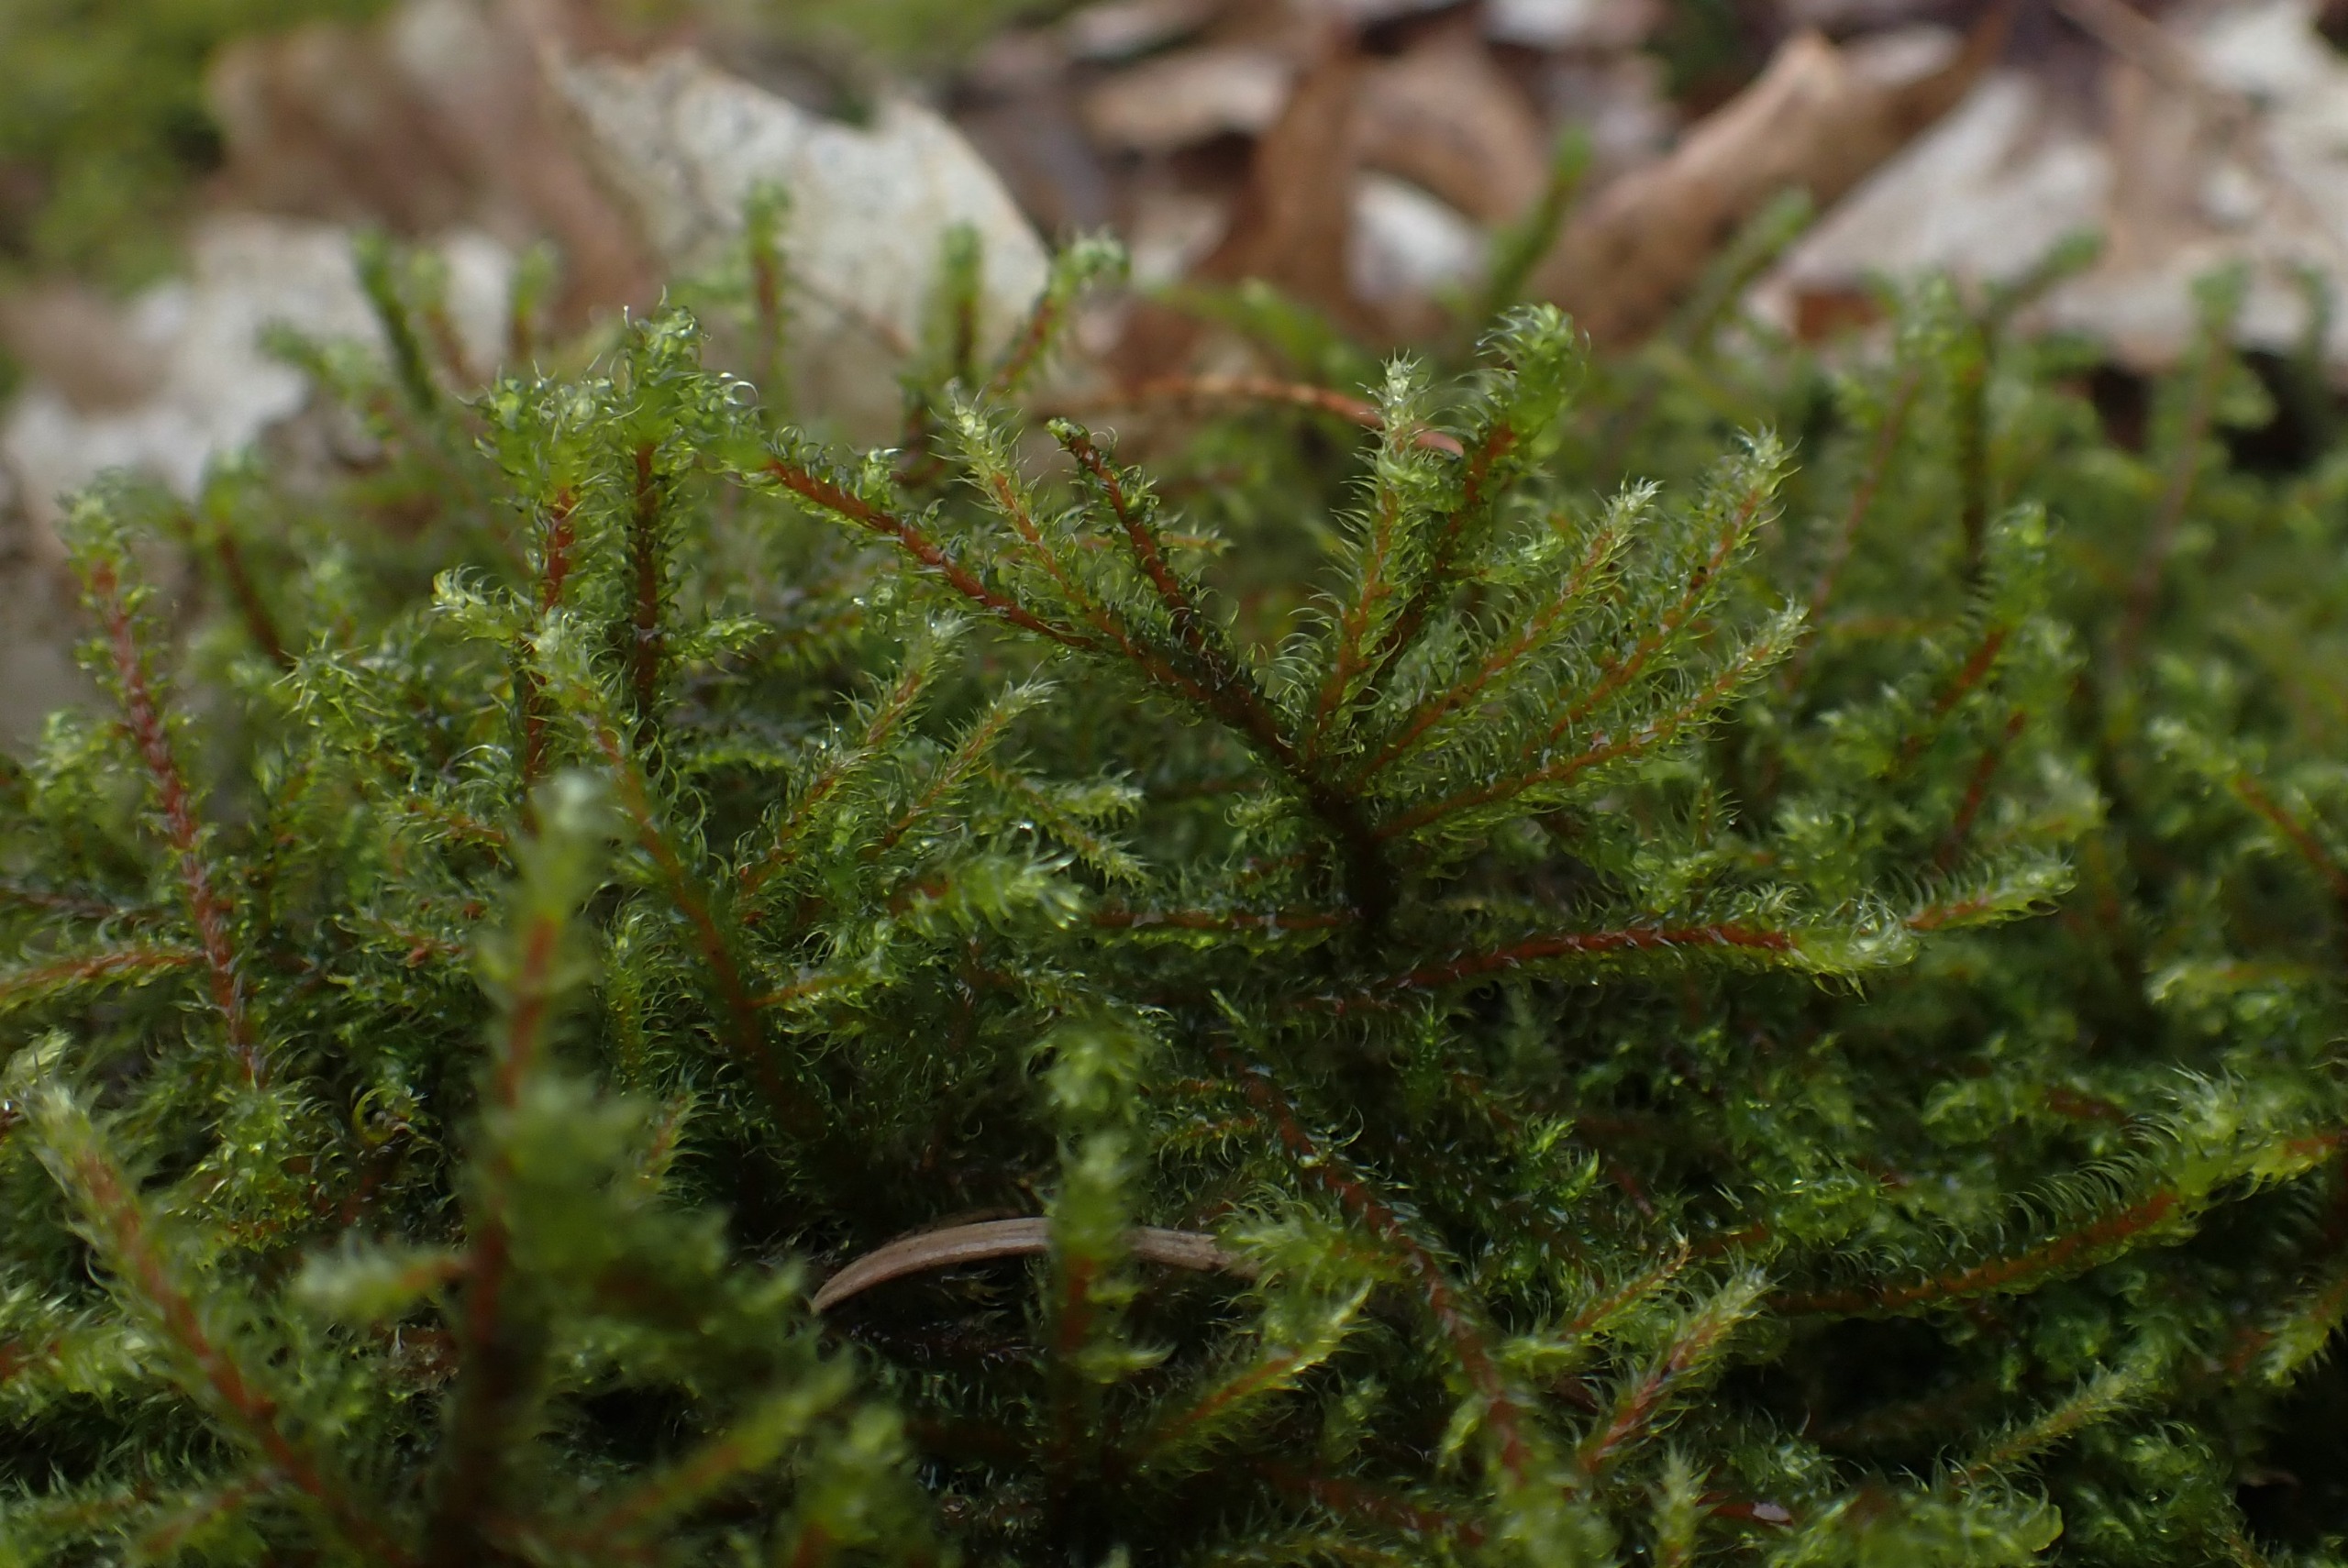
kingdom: Plantae
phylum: Bryophyta
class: Bryopsida
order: Hypnales
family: Hylocomiaceae
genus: Rhytidiadelphus
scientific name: Rhytidiadelphus loreus
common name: Ulvefod-kransemos
